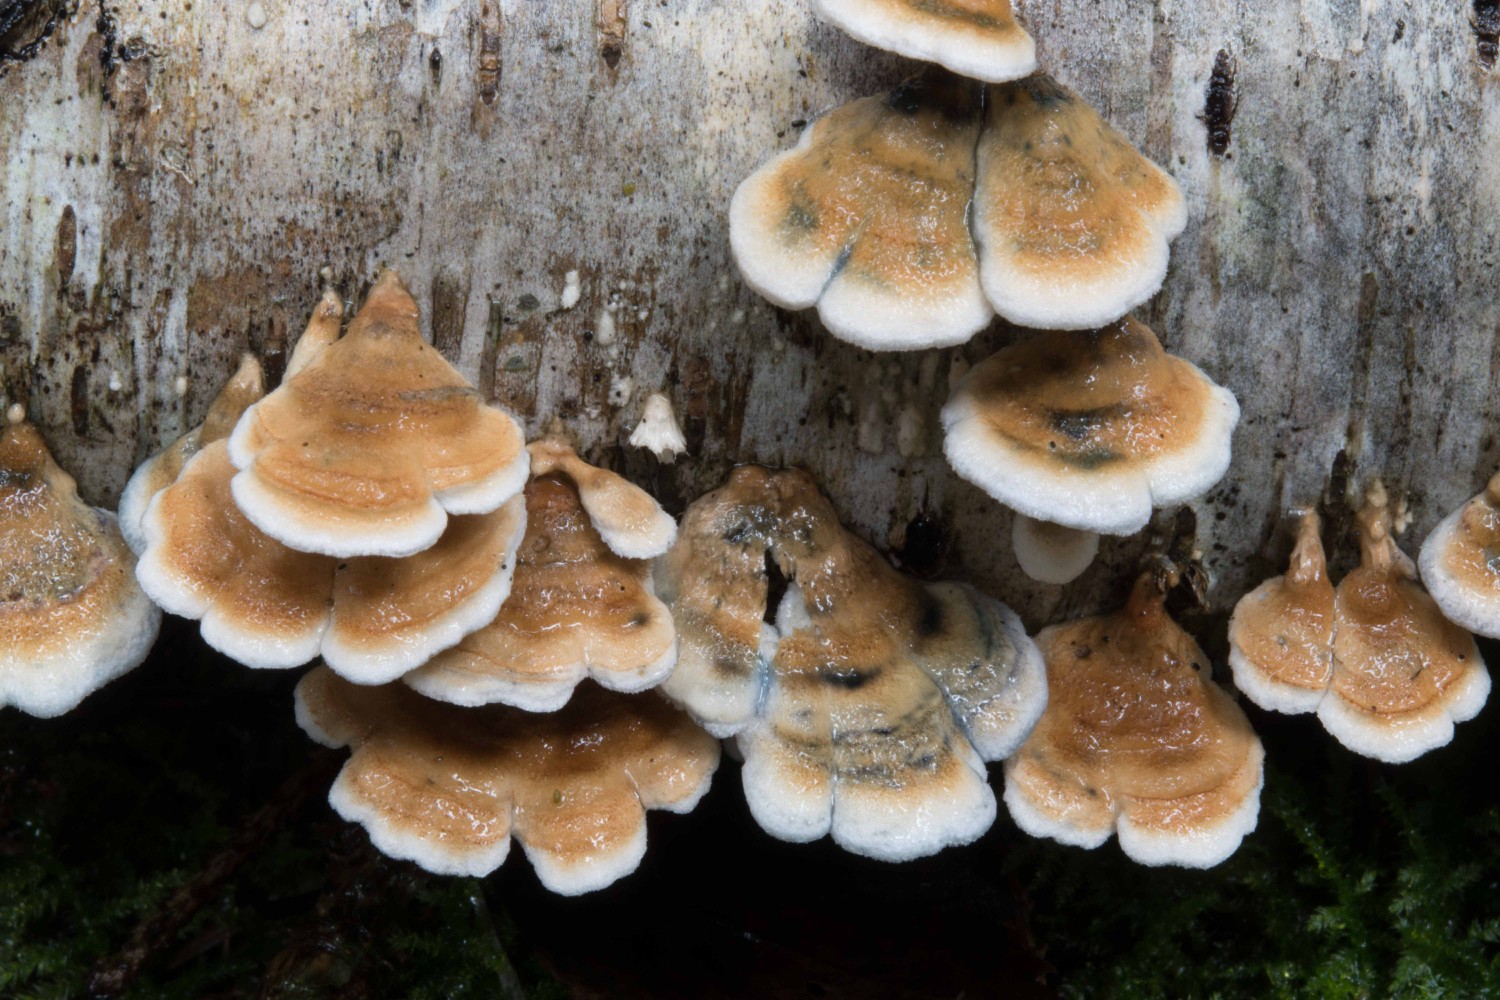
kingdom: Fungi
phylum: Basidiomycota
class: Agaricomycetes
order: Amylocorticiales
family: Amylocorticiaceae
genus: Plicaturopsis
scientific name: Plicaturopsis crispa
